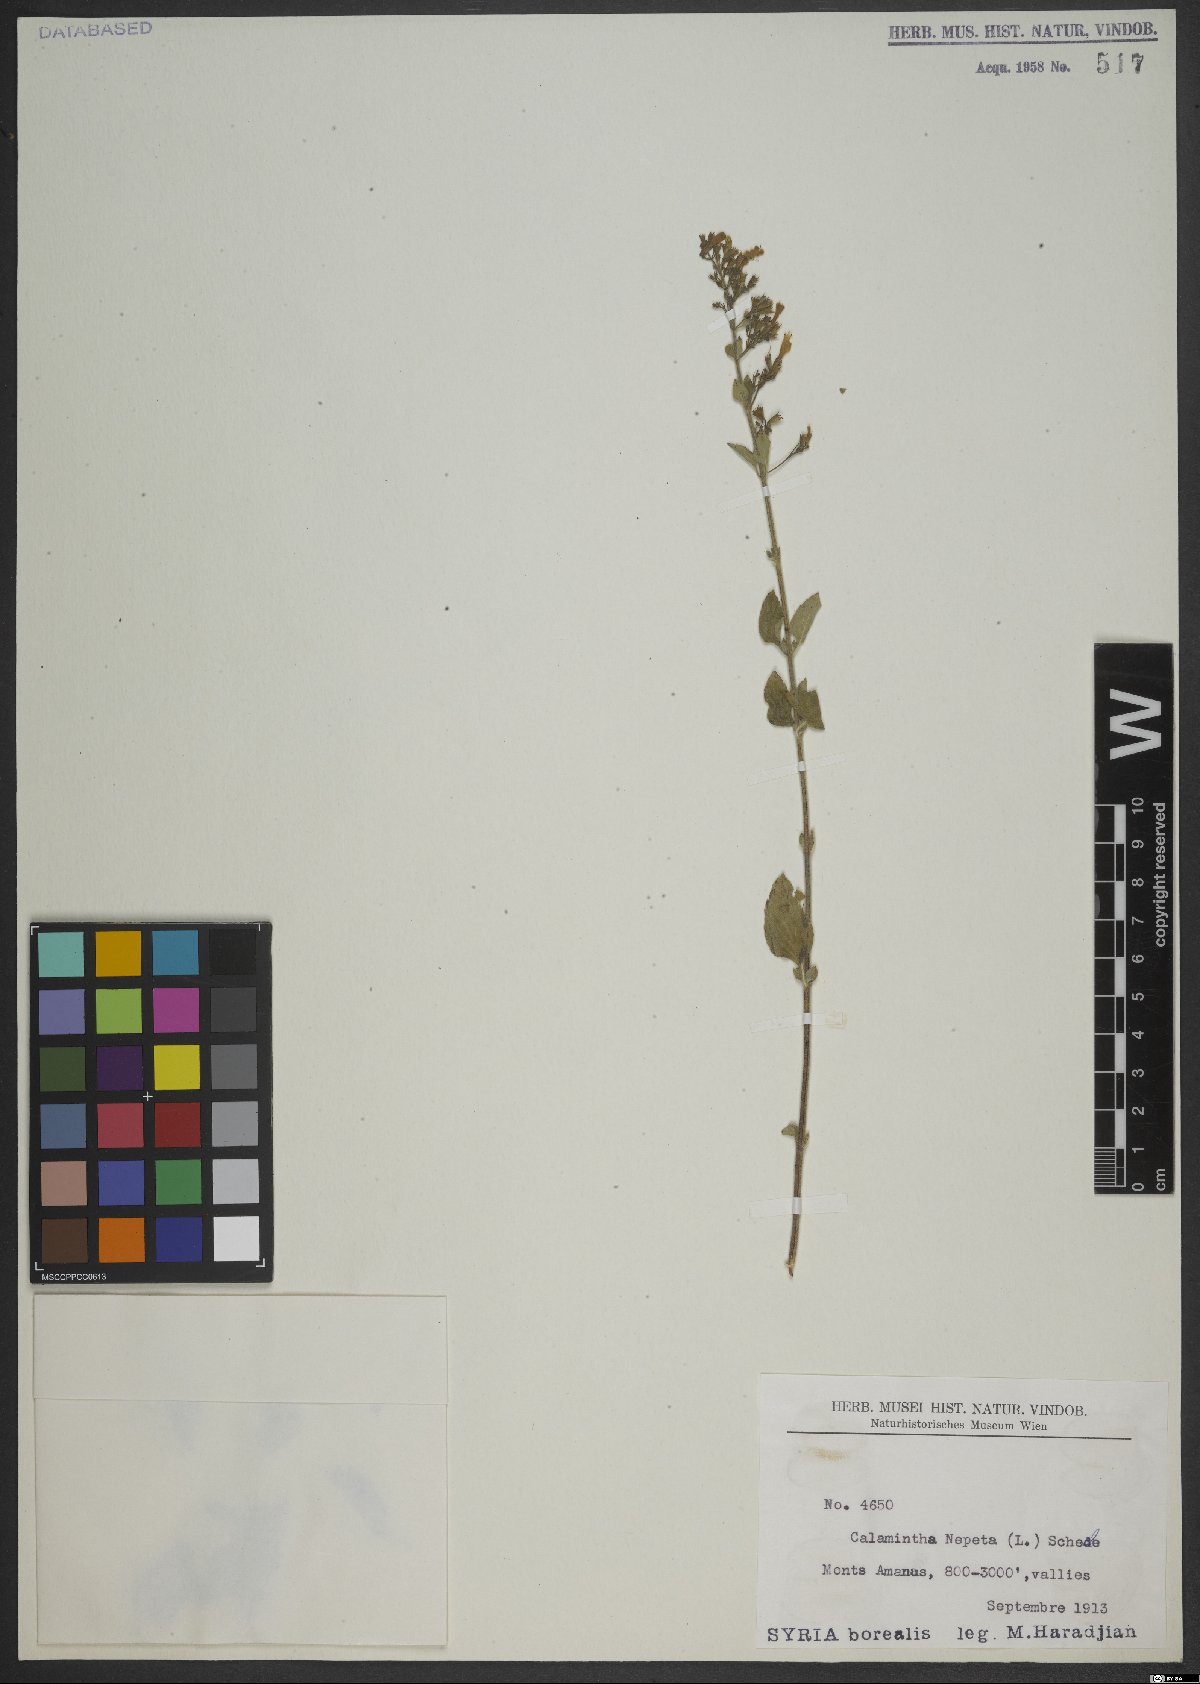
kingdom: Plantae
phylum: Tracheophyta
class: Magnoliopsida
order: Lamiales
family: Lamiaceae
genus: Clinopodium
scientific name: Clinopodium nepeta
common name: Lesser calamint
